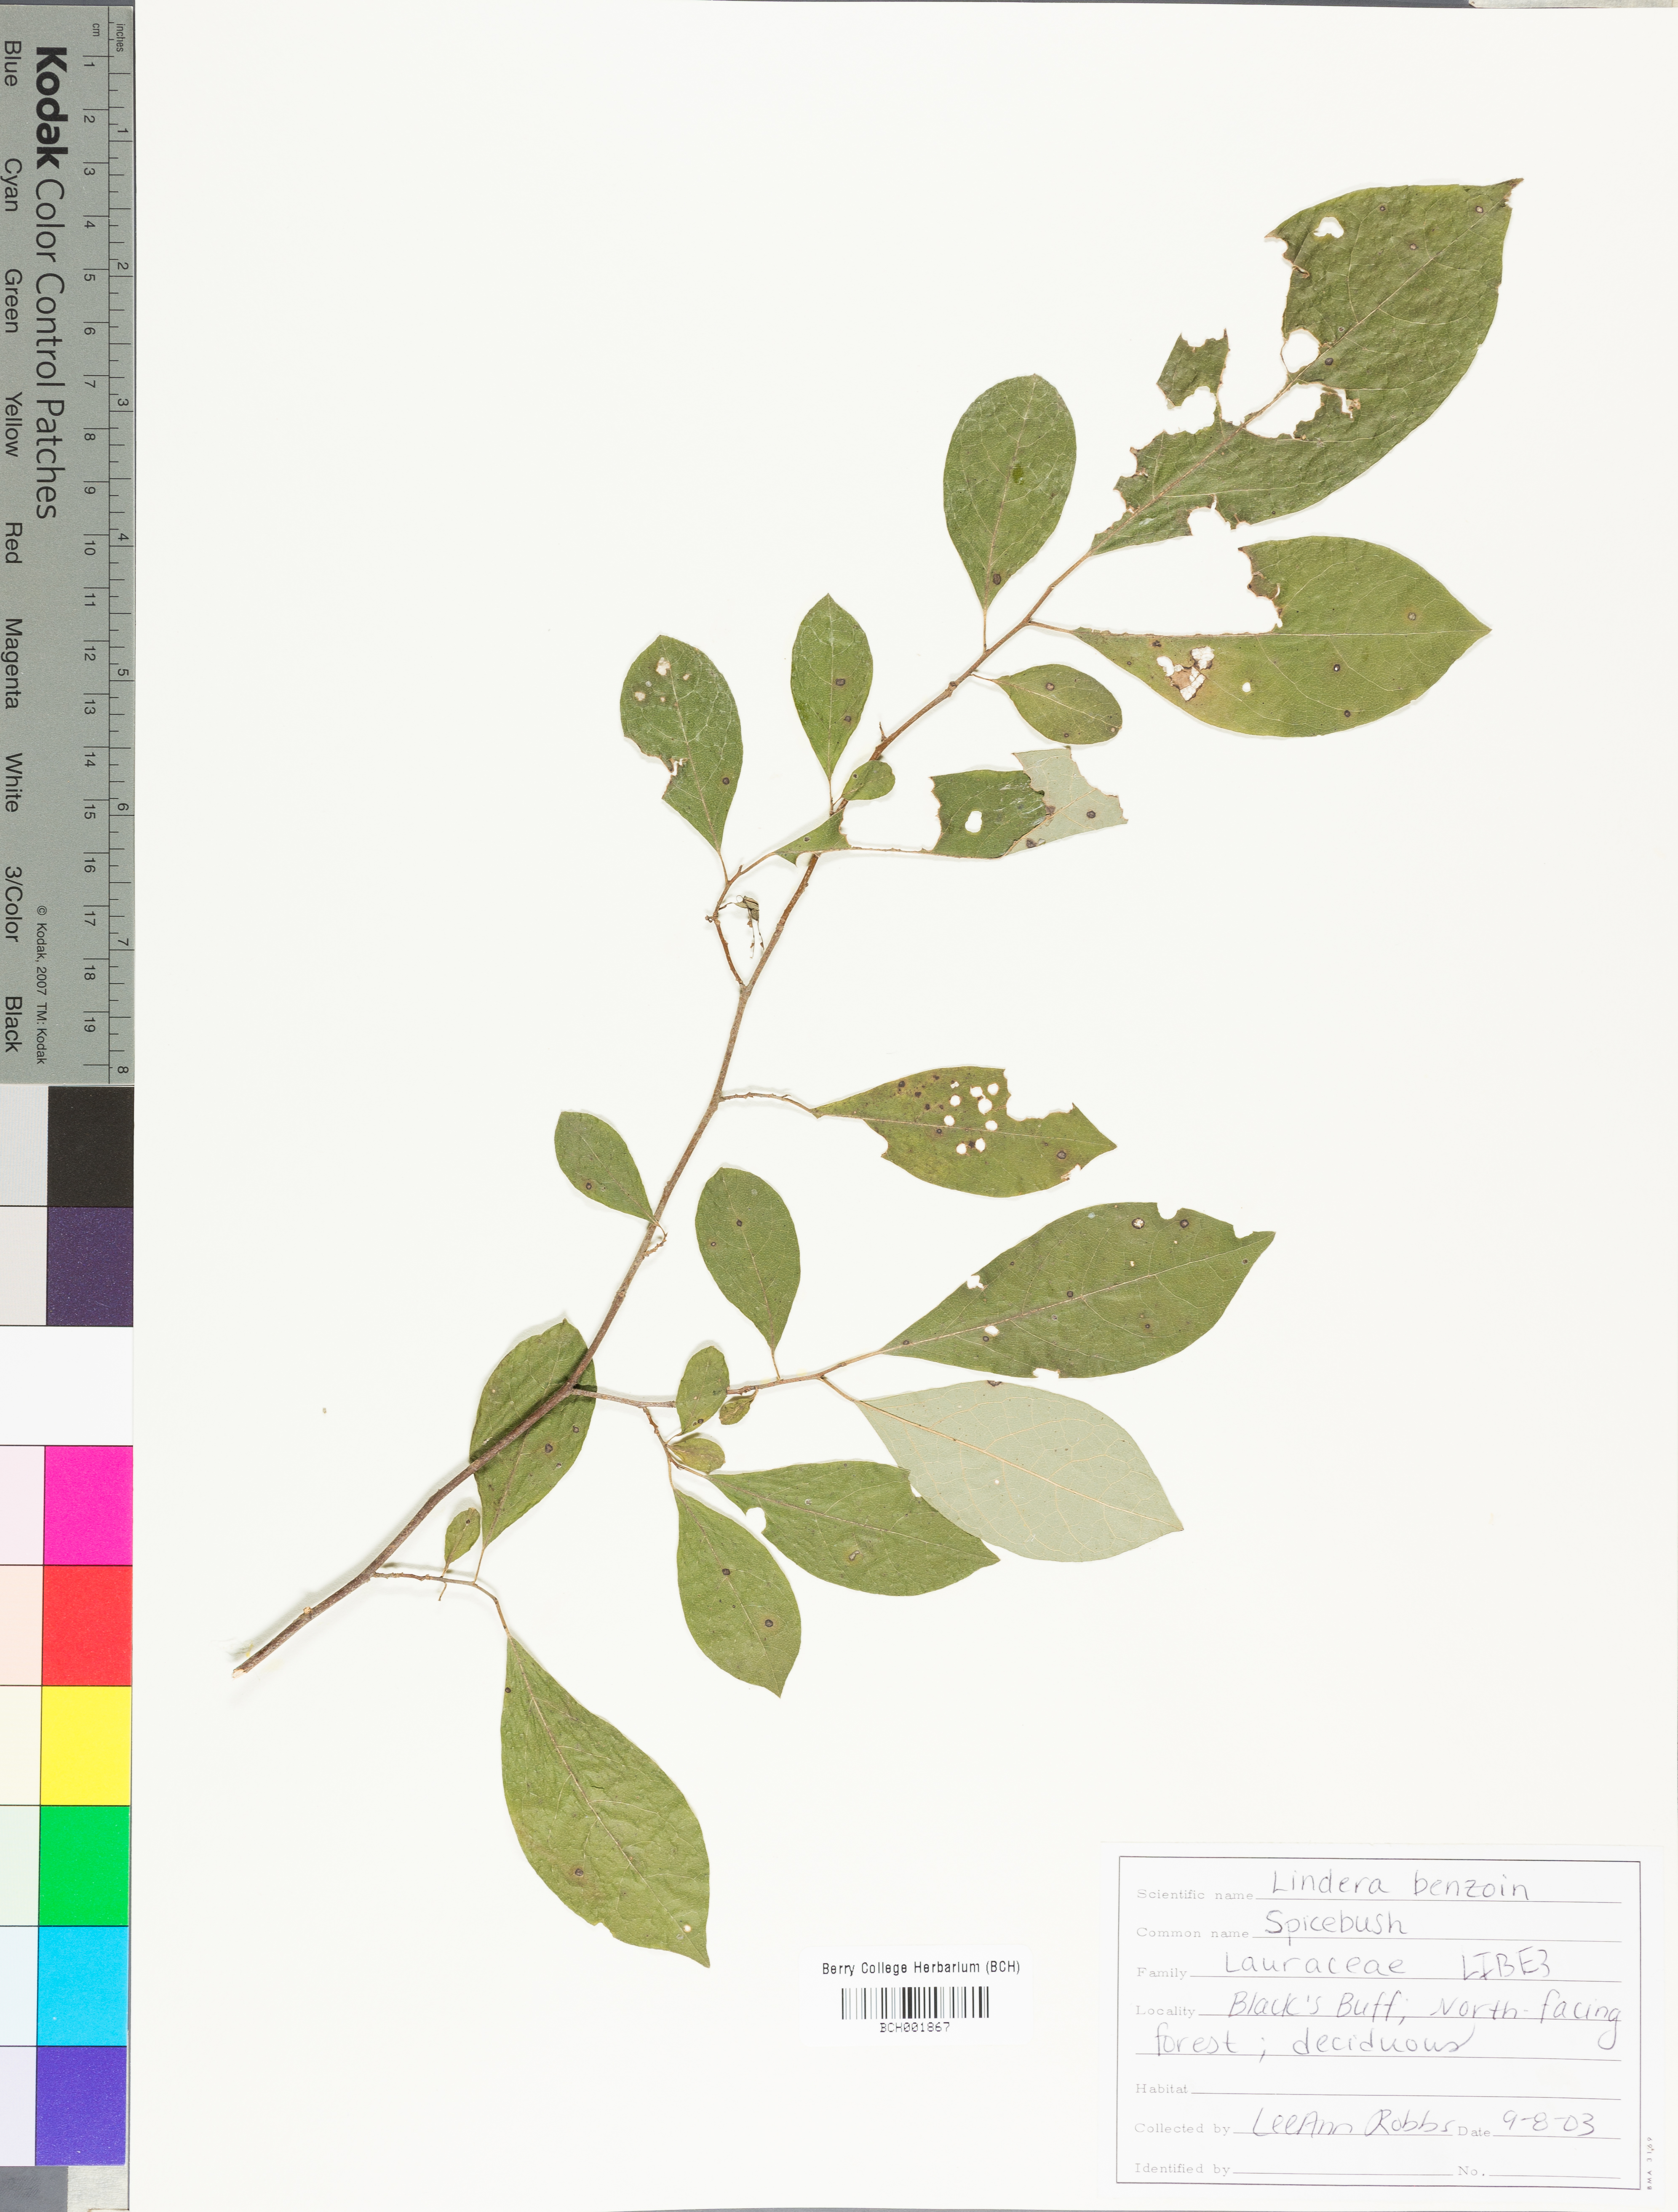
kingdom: Plantae
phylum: Tracheophyta
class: Magnoliopsida
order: Laurales
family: Lauraceae
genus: Lindera
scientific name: Lindera benzoin
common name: Spicebush
